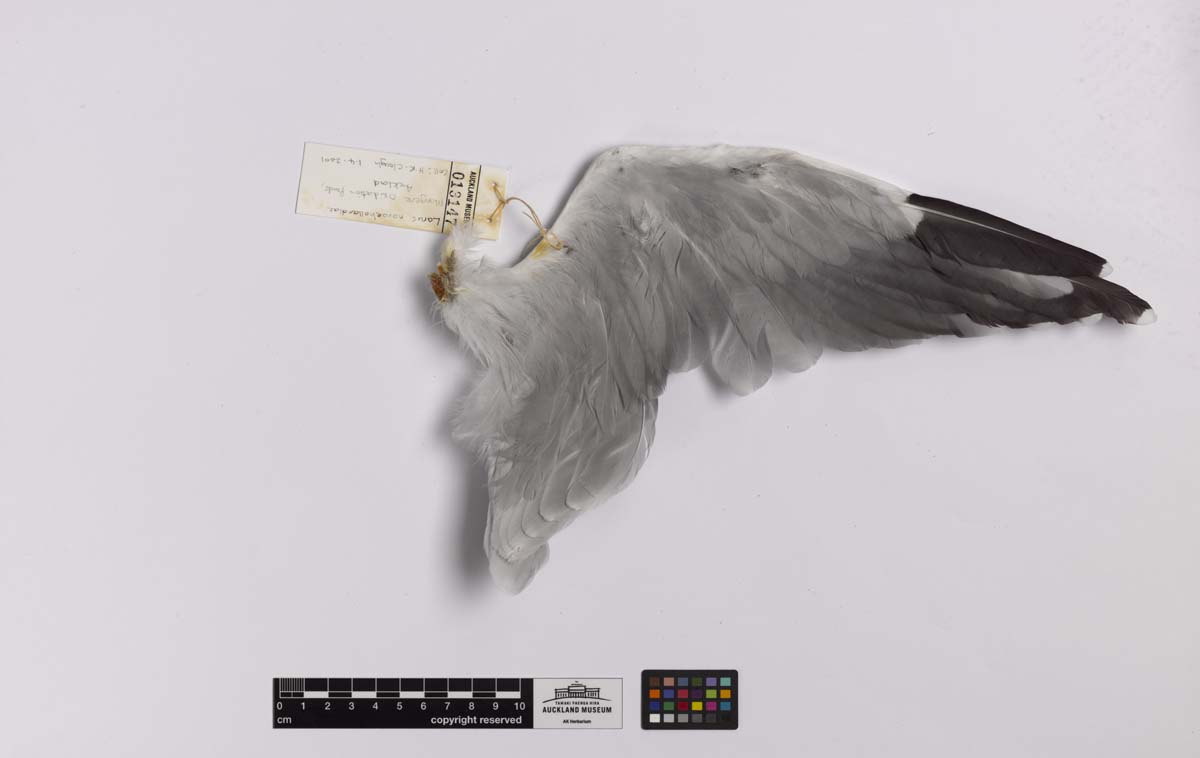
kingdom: Animalia
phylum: Chordata
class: Aves
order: Charadriiformes
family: Laridae
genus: Chroicocephalus
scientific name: Chroicocephalus novaehollandiae
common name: Silver gull
